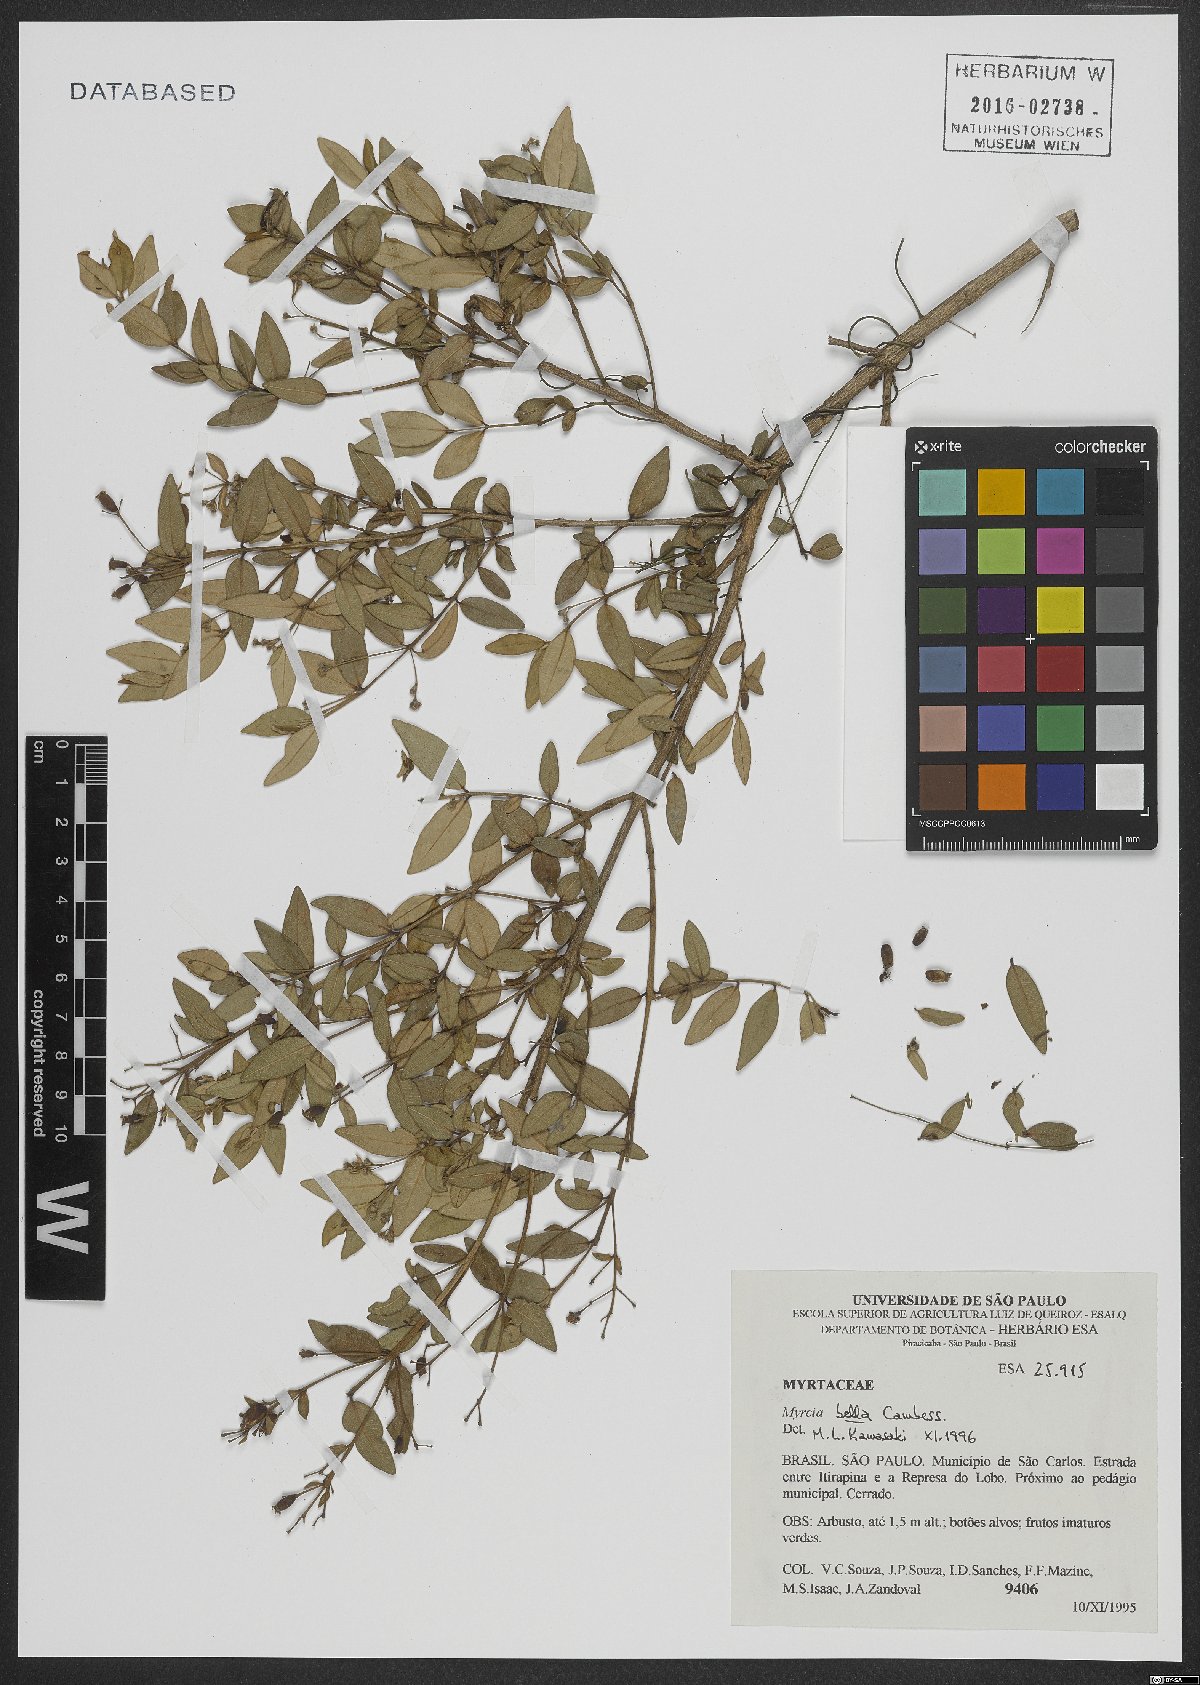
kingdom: Plantae
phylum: Tracheophyta
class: Magnoliopsida
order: Myrtales
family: Myrtaceae
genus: Myrcia
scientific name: Myrcia bella
